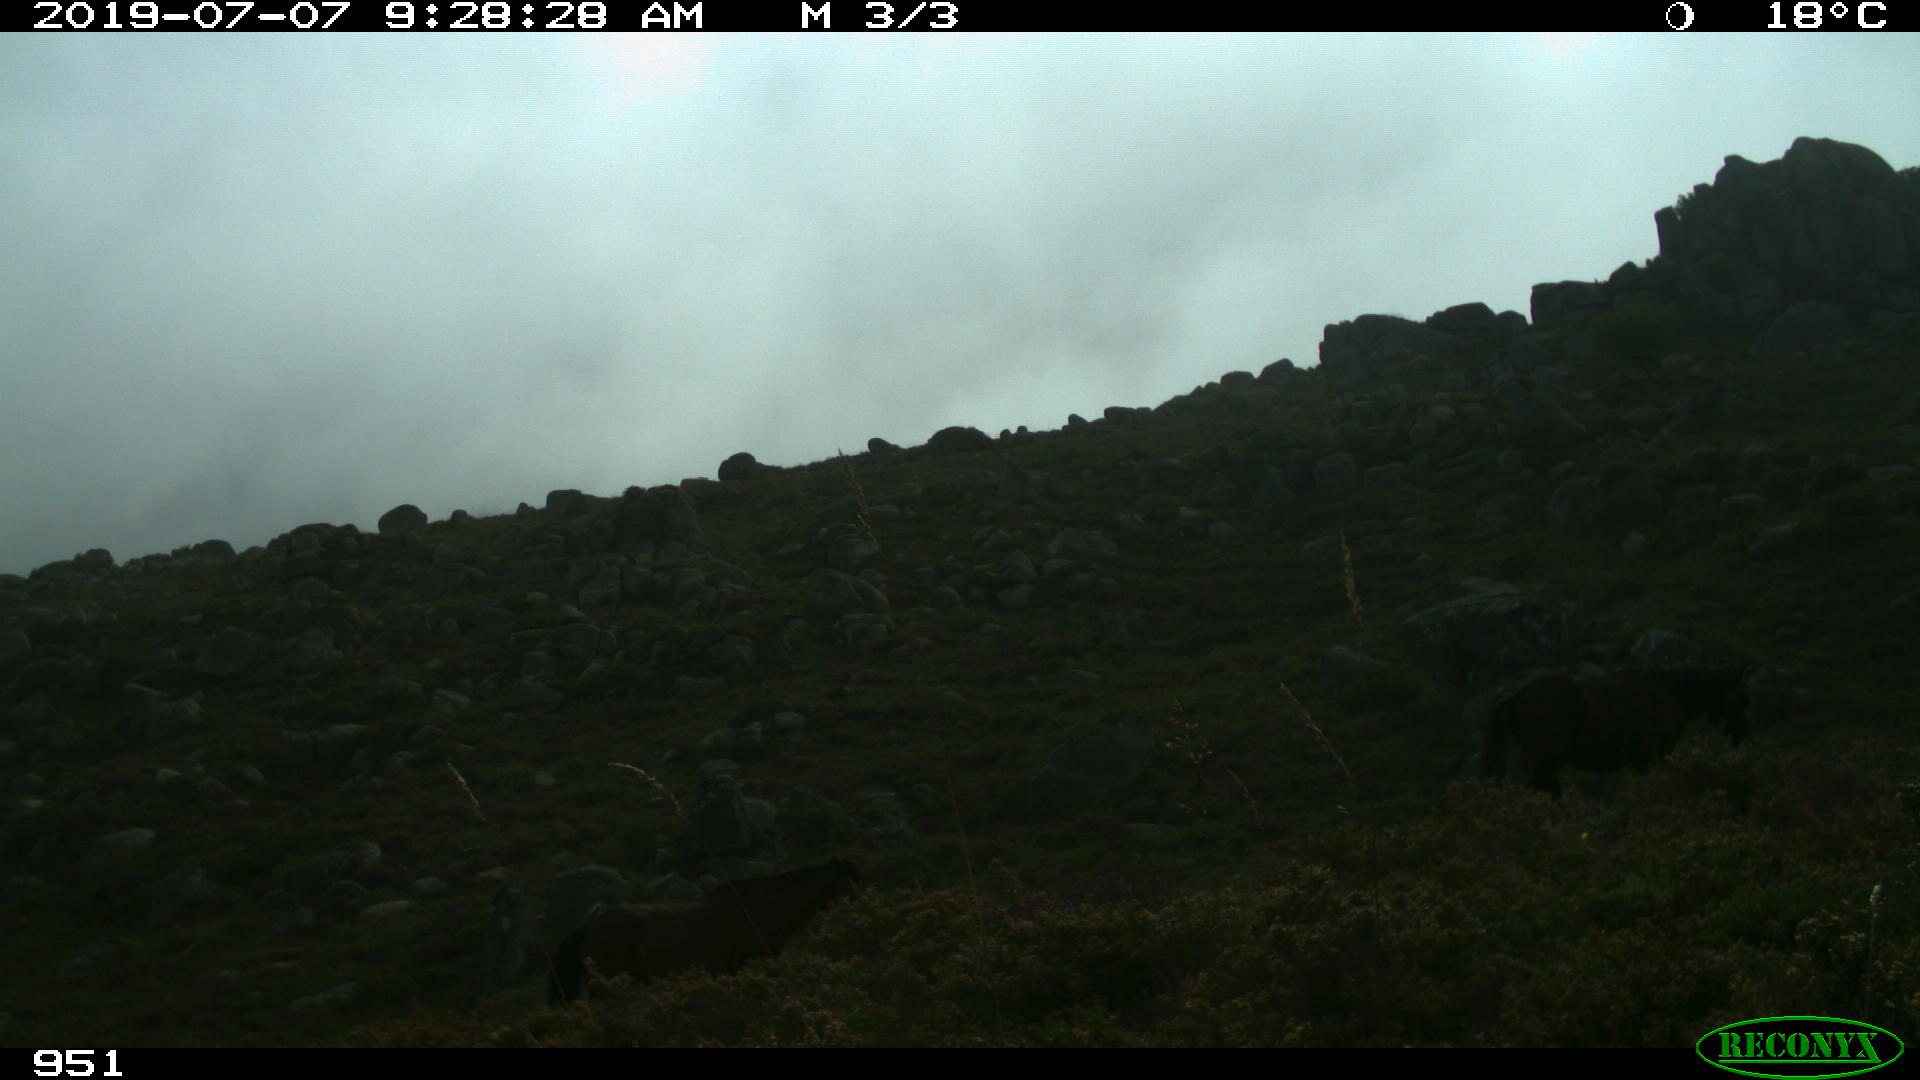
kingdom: Animalia
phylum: Chordata
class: Mammalia
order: Perissodactyla
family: Equidae
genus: Equus
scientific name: Equus caballus
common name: Horse
